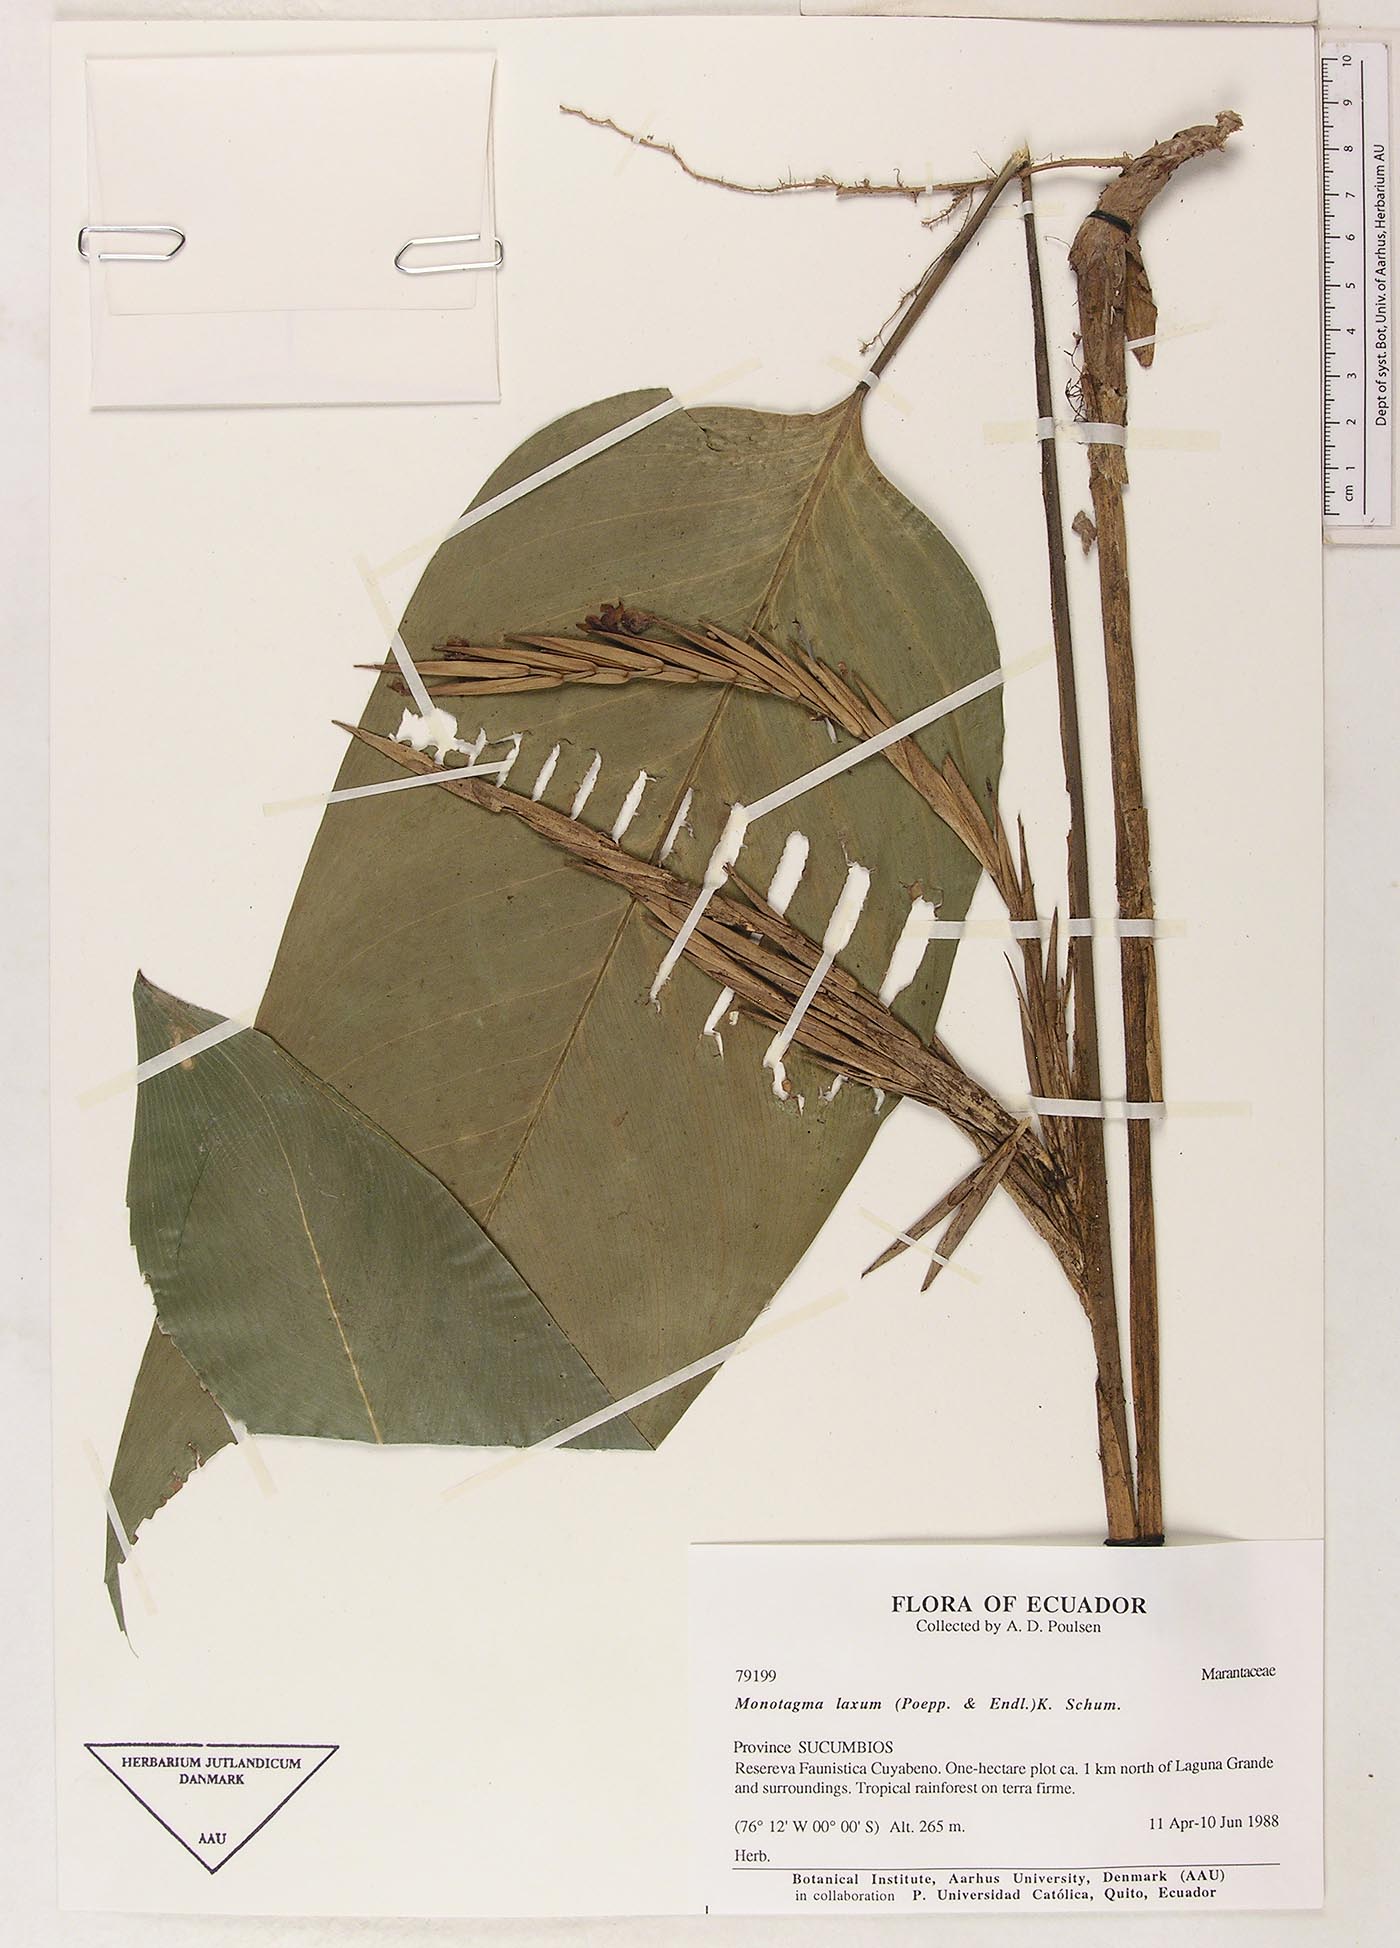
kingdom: Plantae
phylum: Tracheophyta
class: Liliopsida
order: Zingiberales
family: Marantaceae
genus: Monotagma
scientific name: Monotagma laxum
